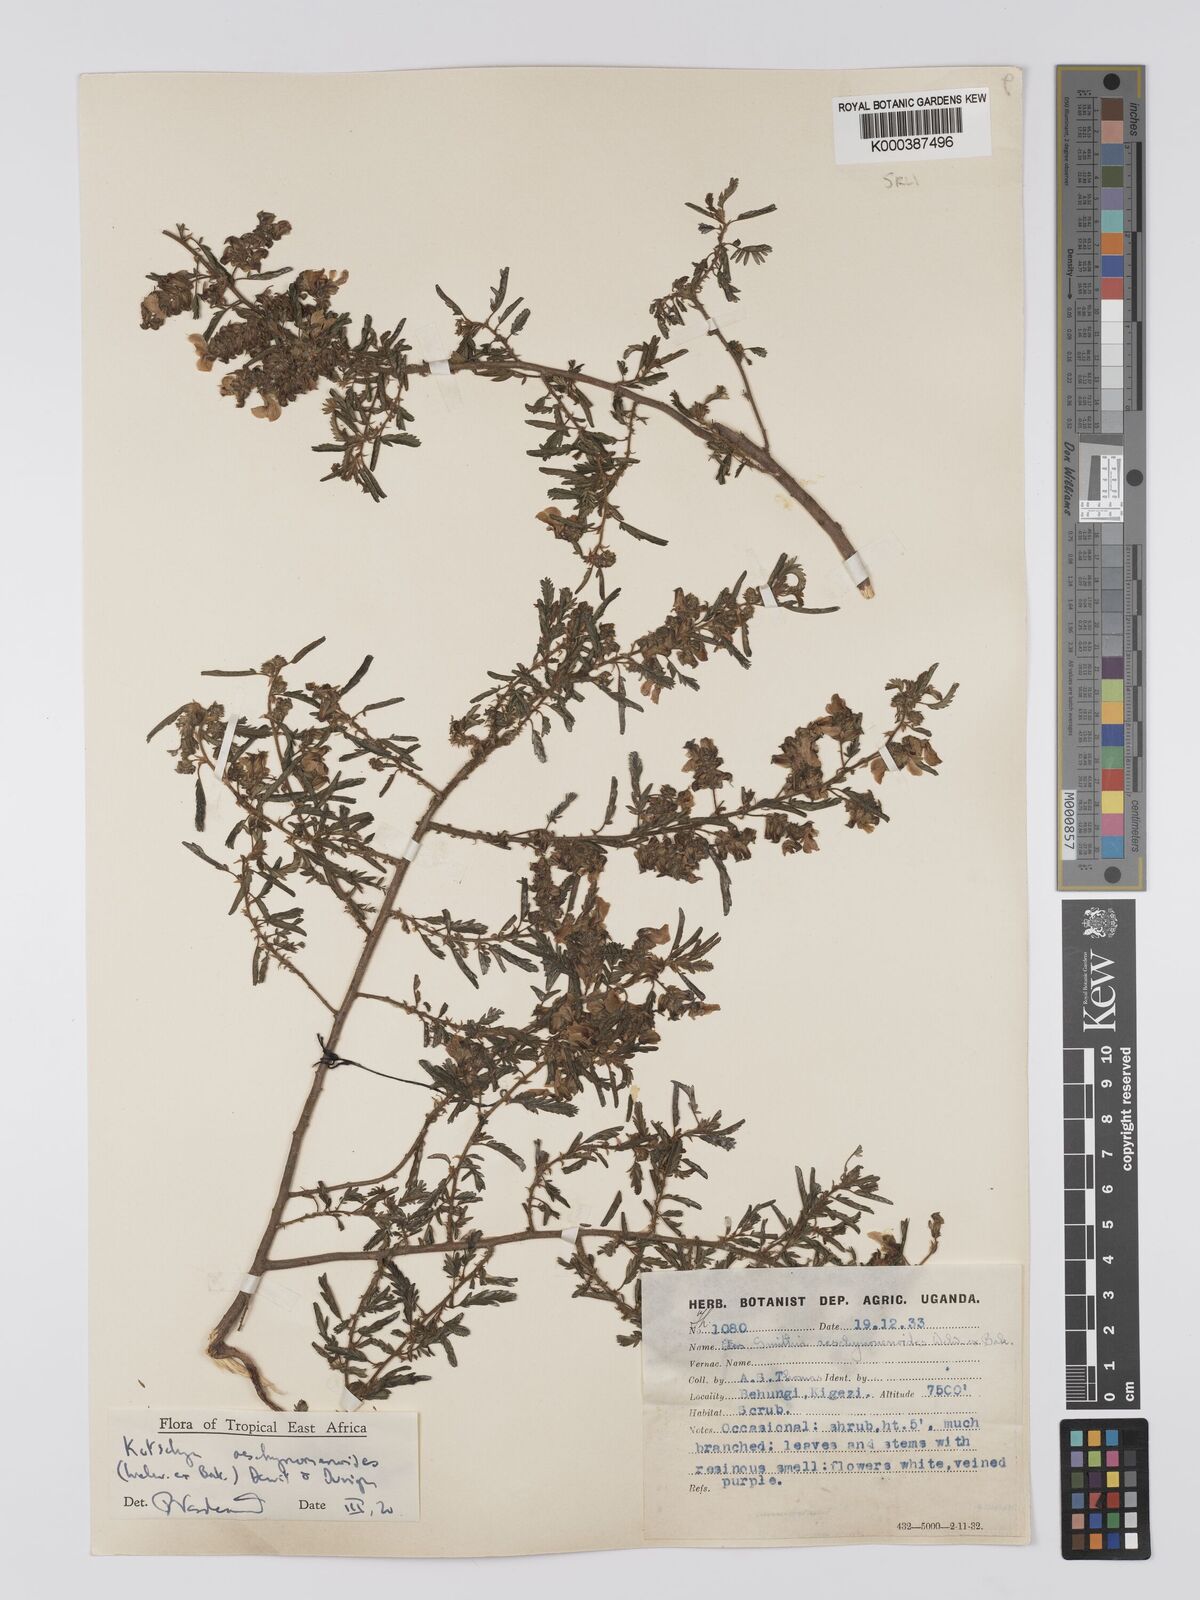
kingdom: Plantae
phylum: Tracheophyta
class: Magnoliopsida
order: Fabales
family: Fabaceae
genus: Kotschya
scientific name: Kotschya aeschynomenoides
